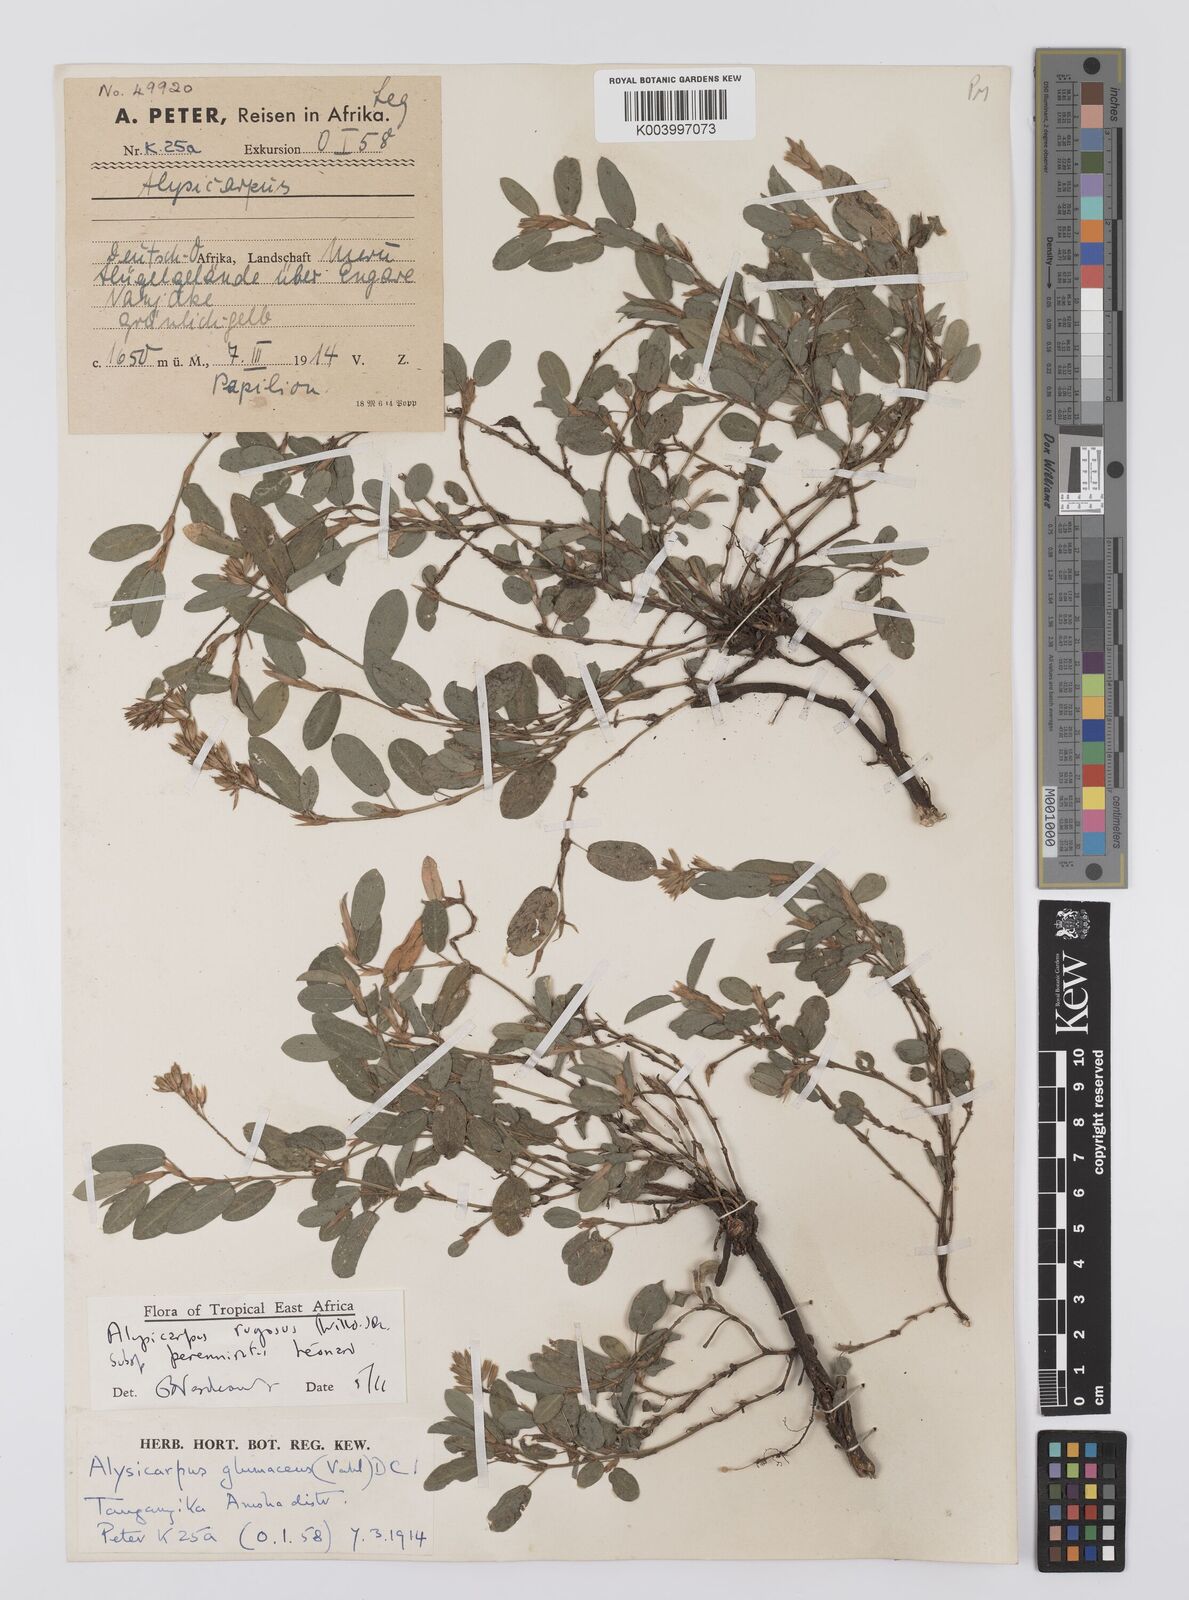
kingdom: Plantae
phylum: Tracheophyta
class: Magnoliopsida
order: Fabales
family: Fabaceae
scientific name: Fabaceae
